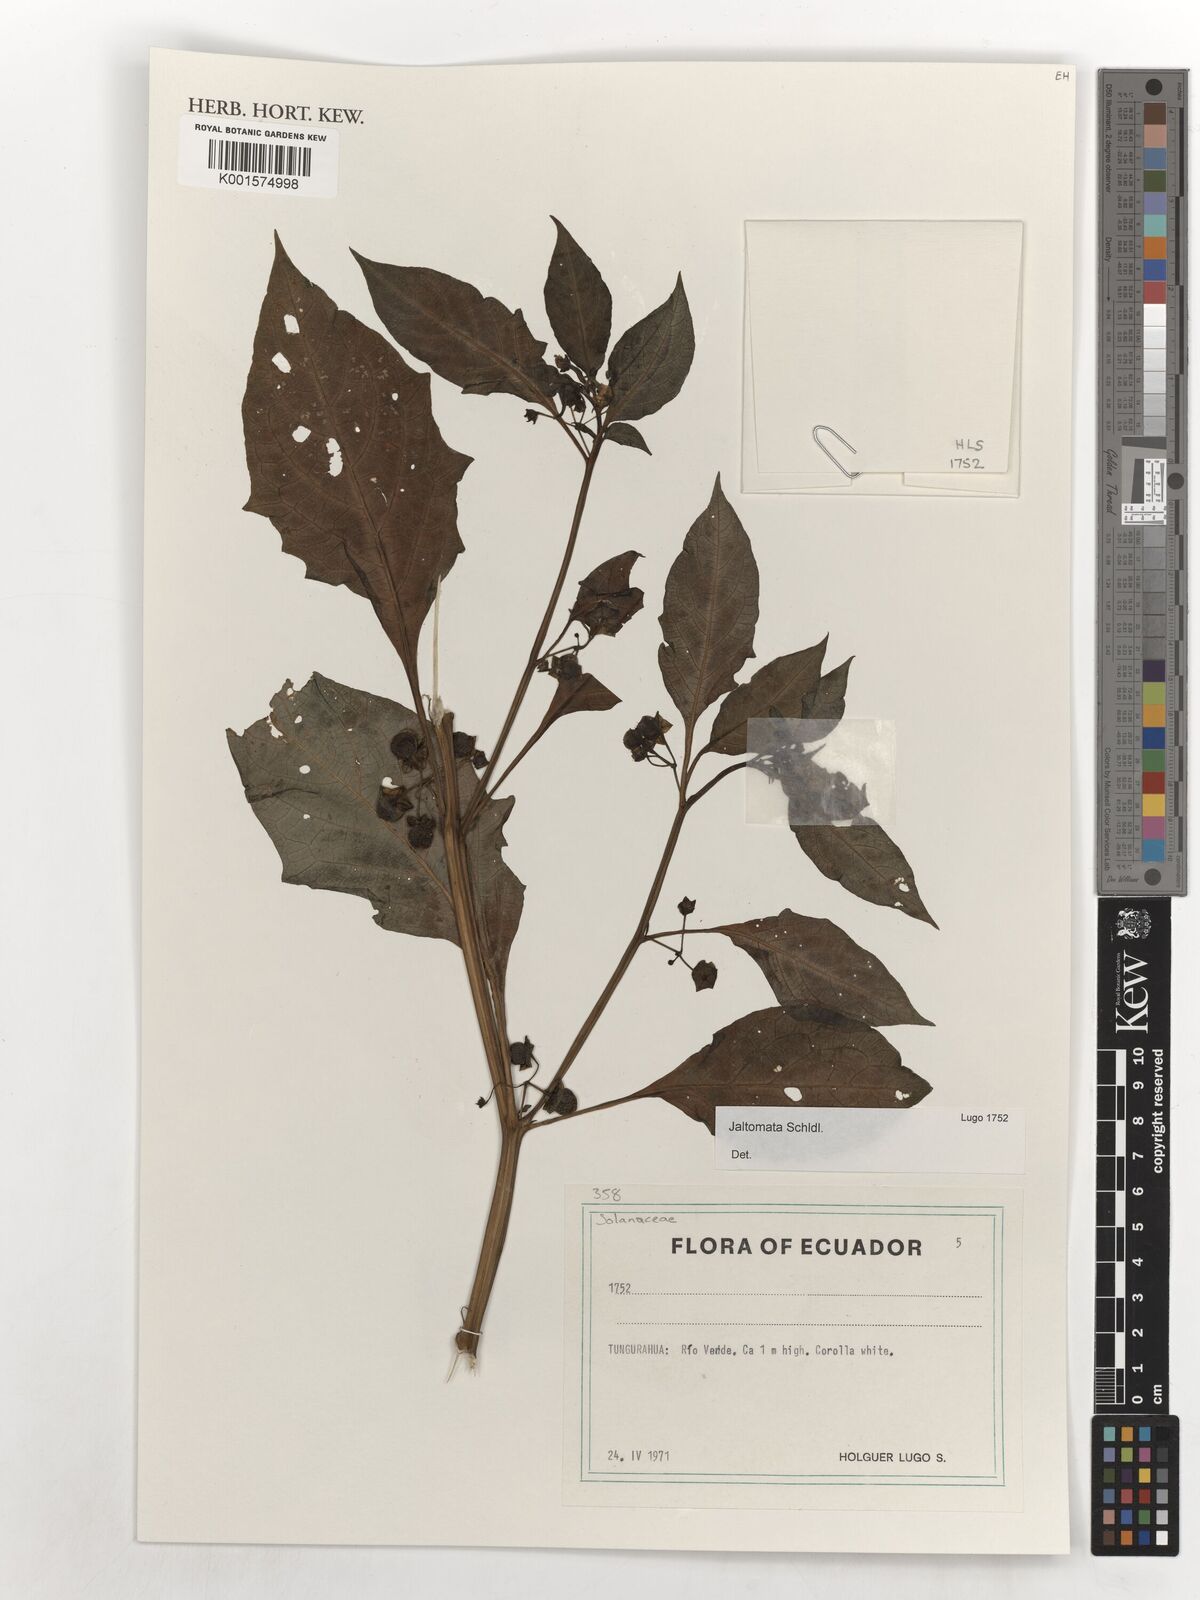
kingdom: Plantae
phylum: Tracheophyta
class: Magnoliopsida
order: Solanales
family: Solanaceae
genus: Jaltomata
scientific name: Jaltomata
